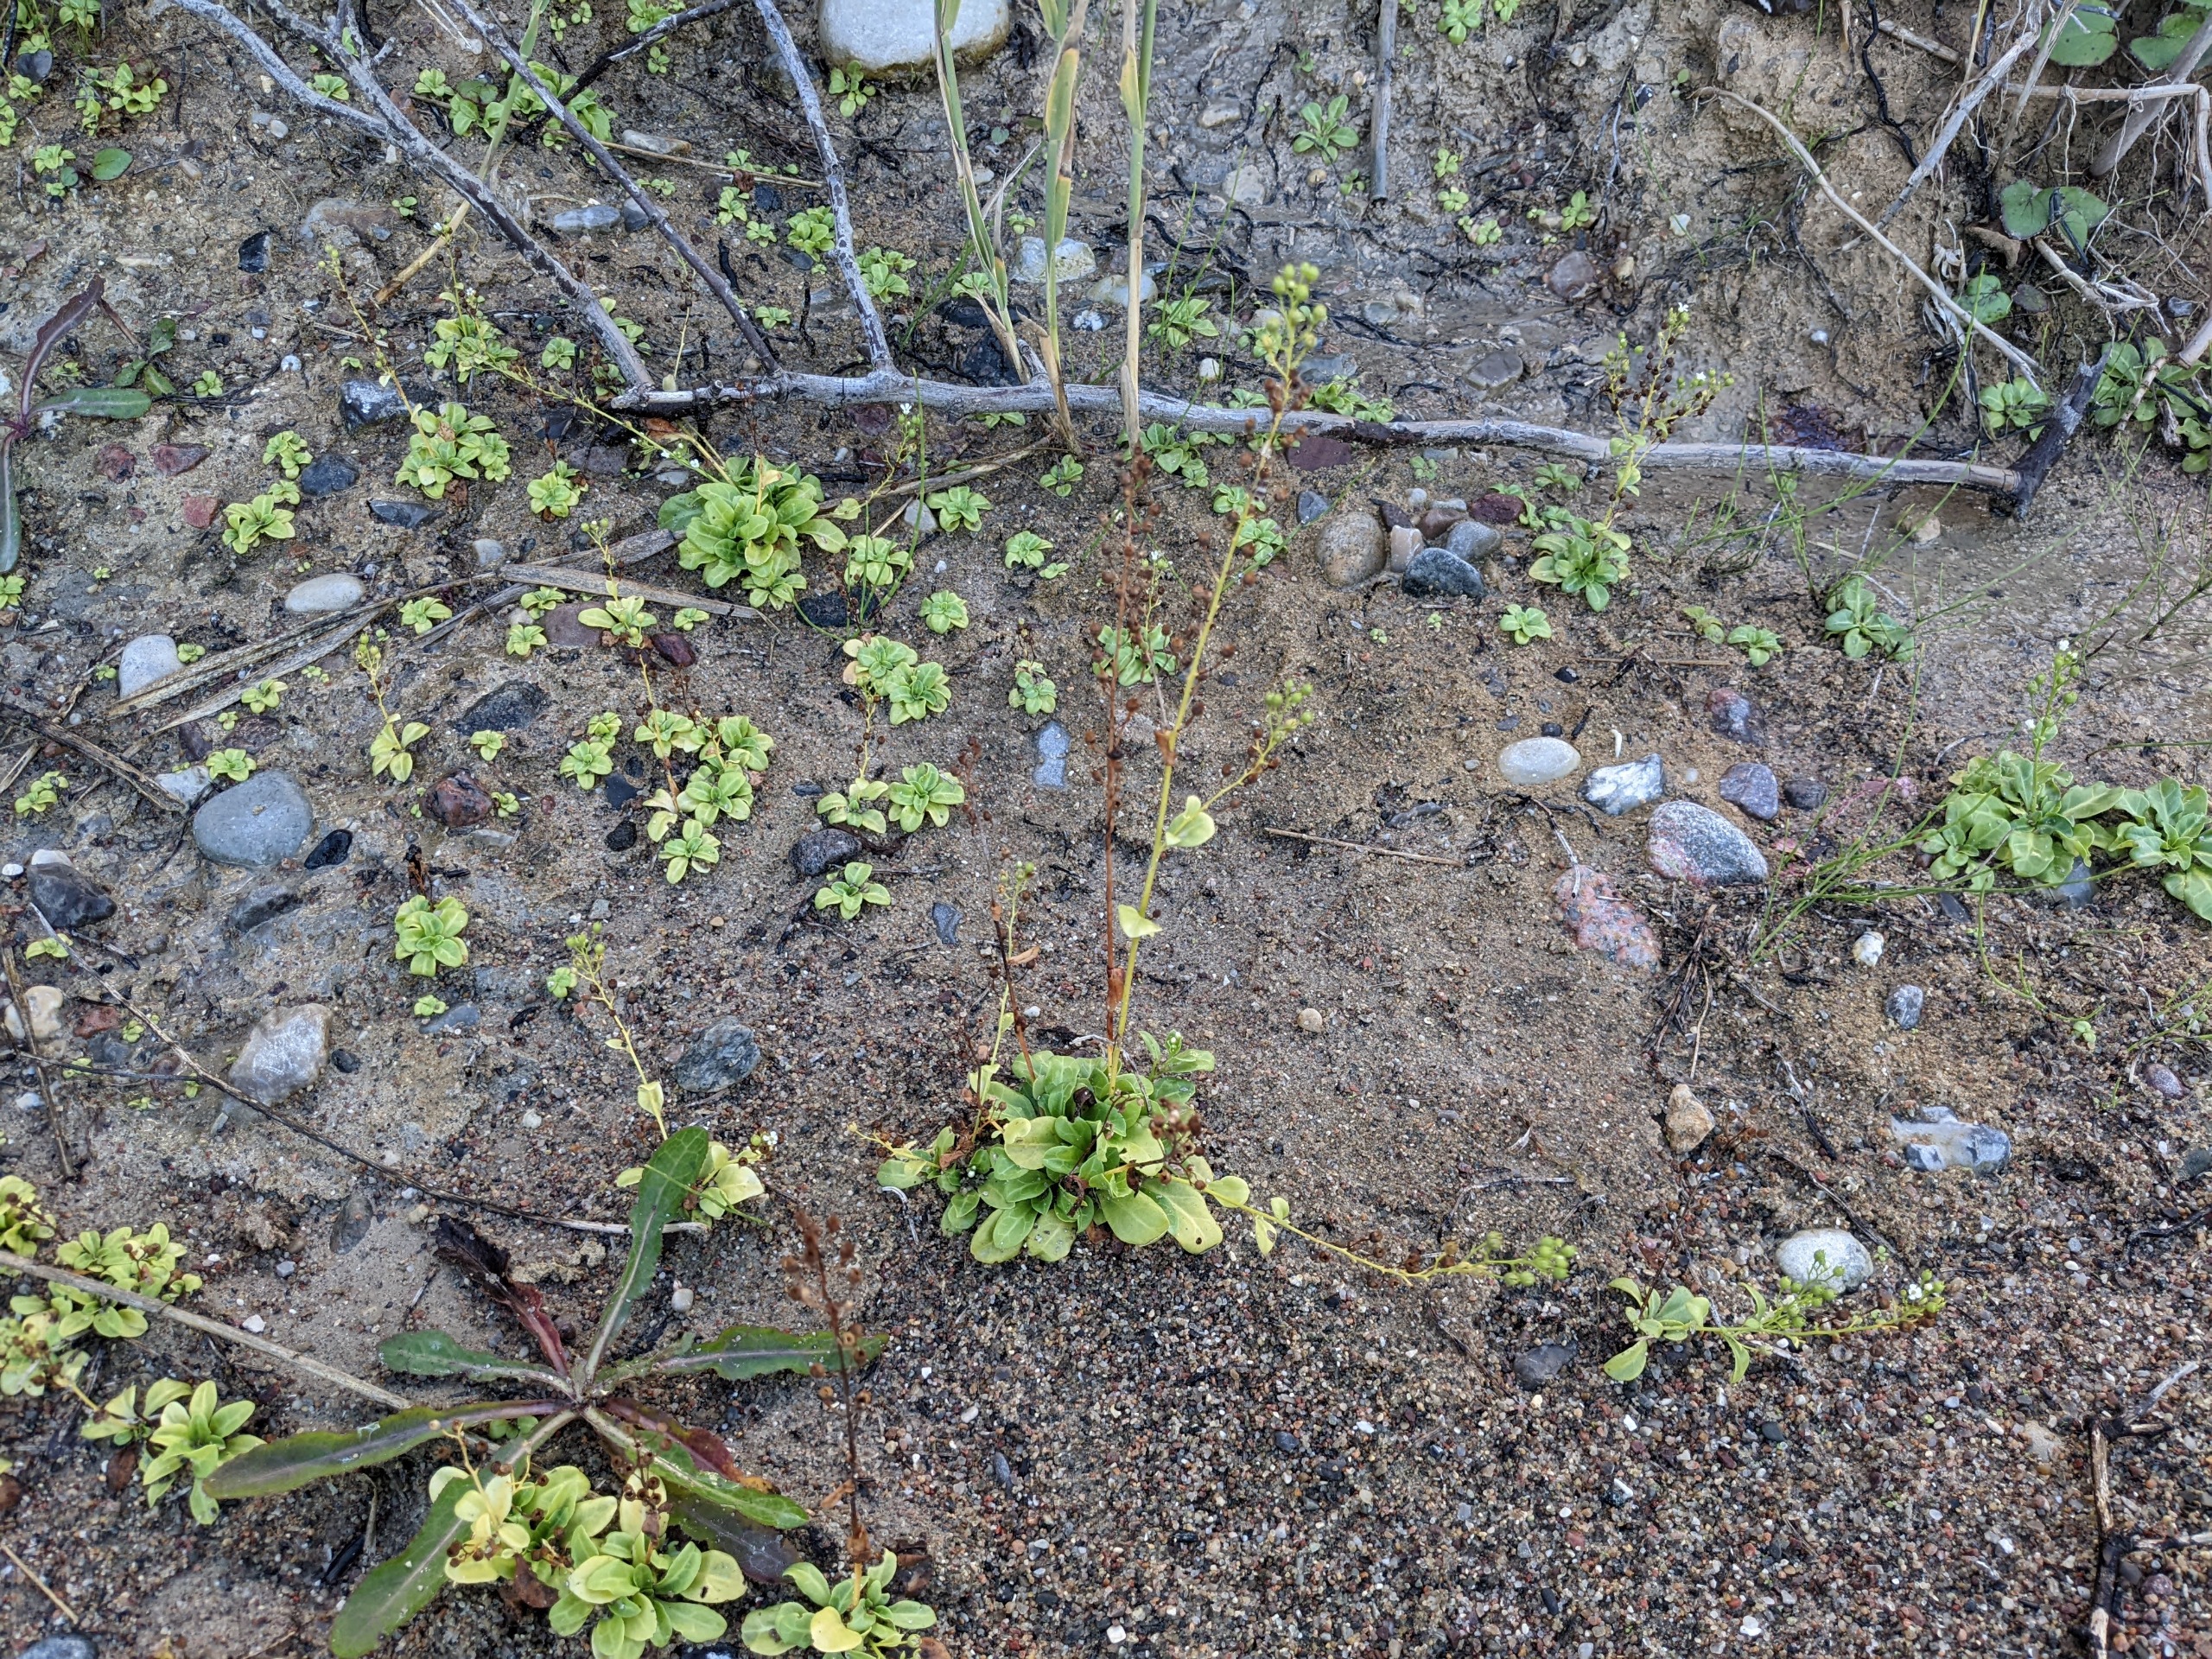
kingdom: Plantae
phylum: Tracheophyta
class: Magnoliopsida
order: Ericales
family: Primulaceae
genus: Samolus
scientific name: Samolus valerandi
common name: Samel
